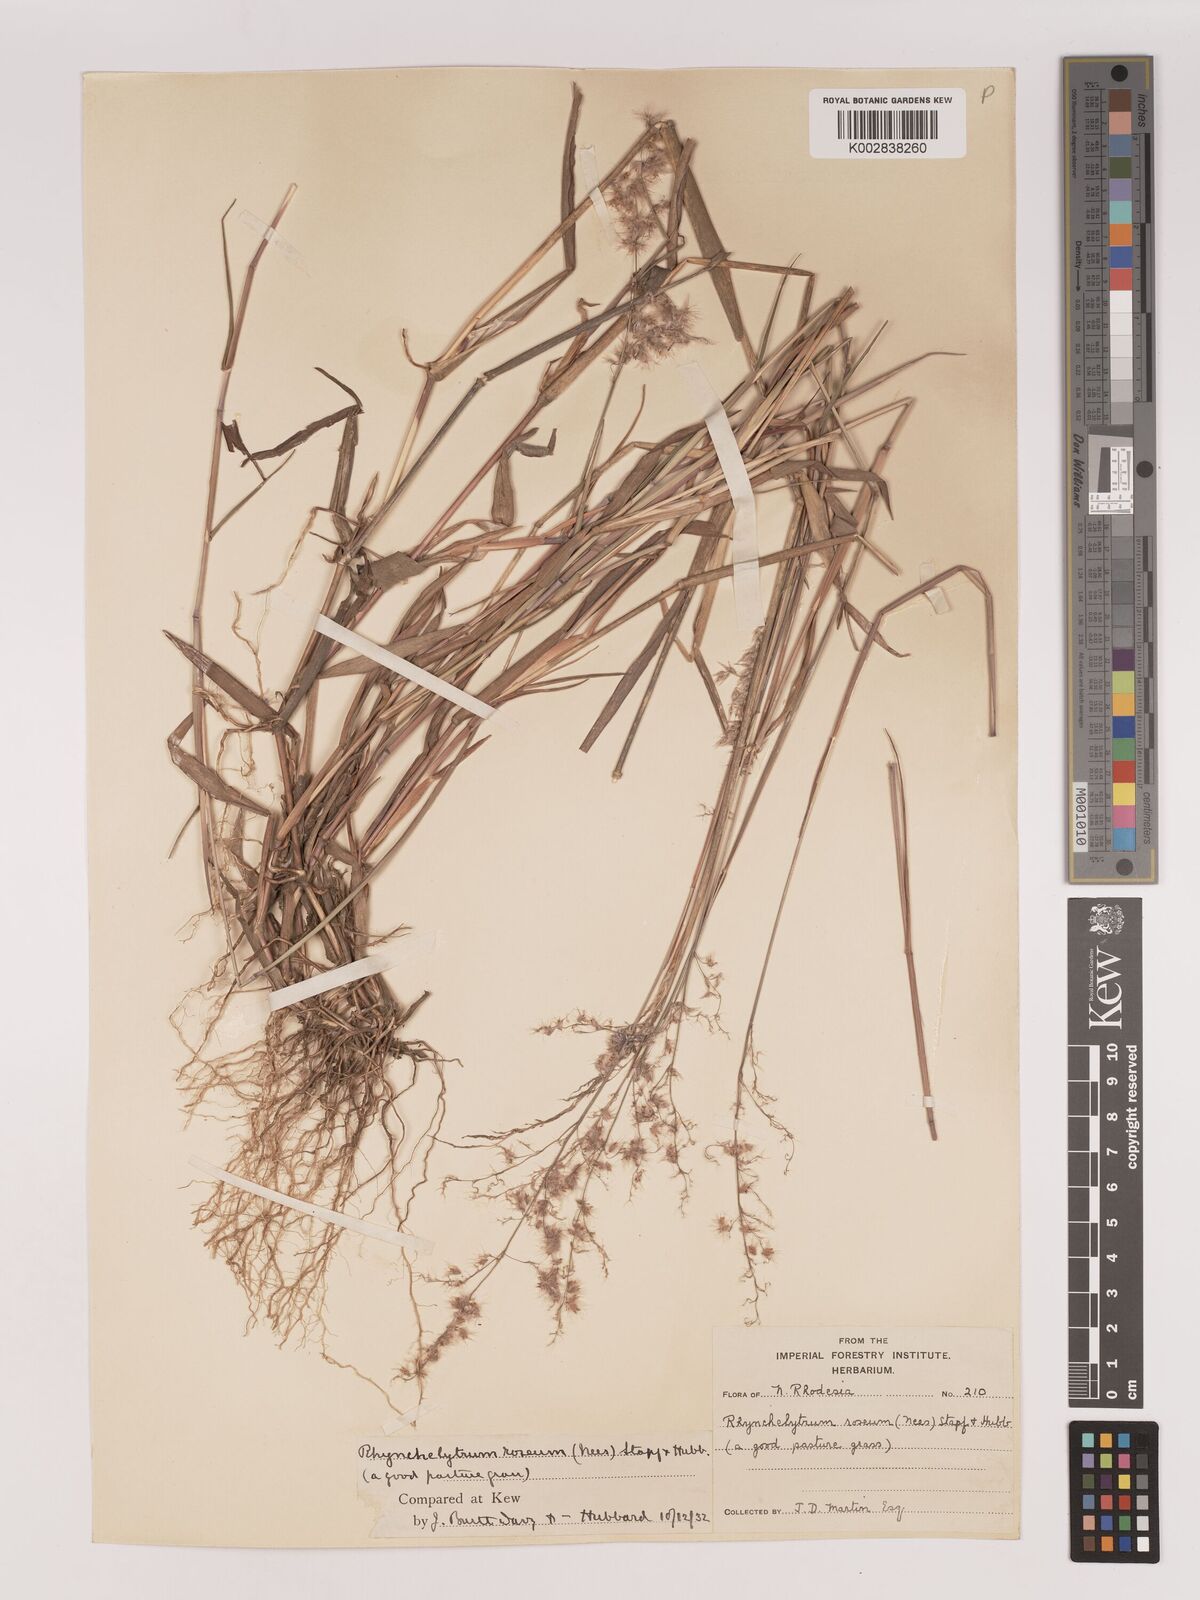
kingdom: Plantae
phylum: Tracheophyta
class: Liliopsida
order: Poales
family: Poaceae
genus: Melinis
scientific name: Melinis repens
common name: Rose natal grass
